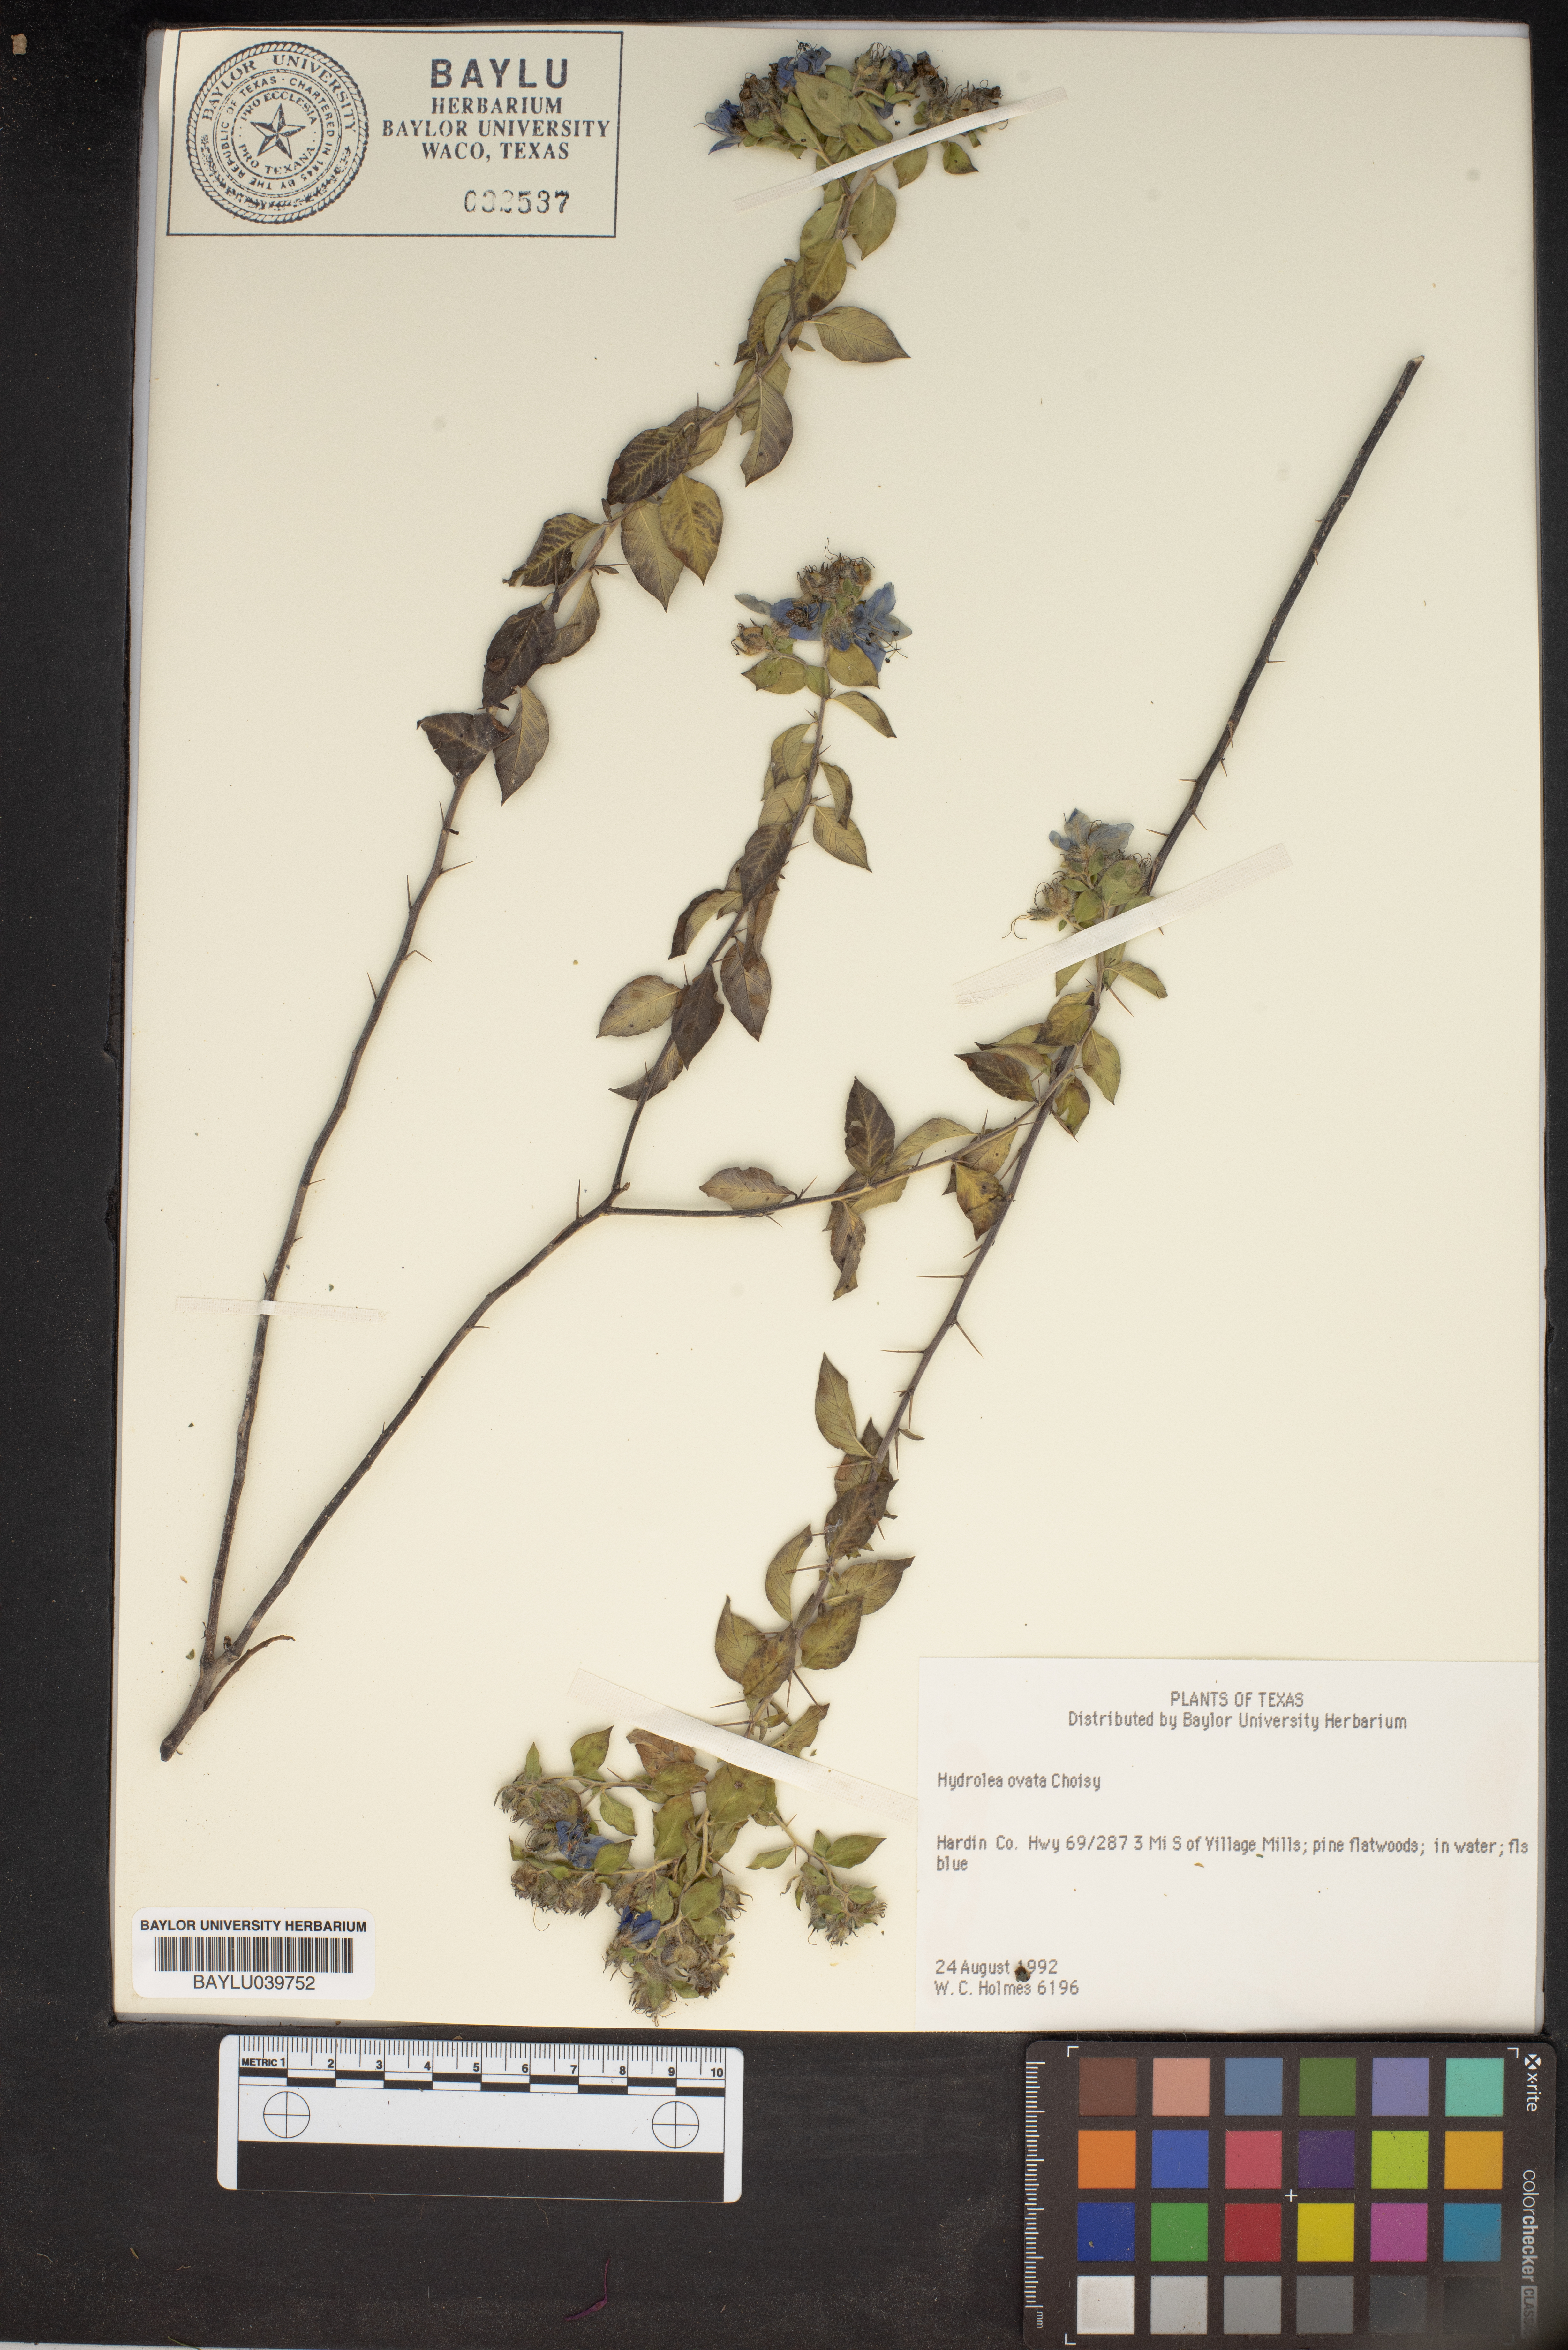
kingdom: Plantae
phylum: Tracheophyta
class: Magnoliopsida
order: Solanales
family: Hydroleaceae
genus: Hydrolea
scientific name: Hydrolea ovata
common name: Ovate false fiddleleaf
